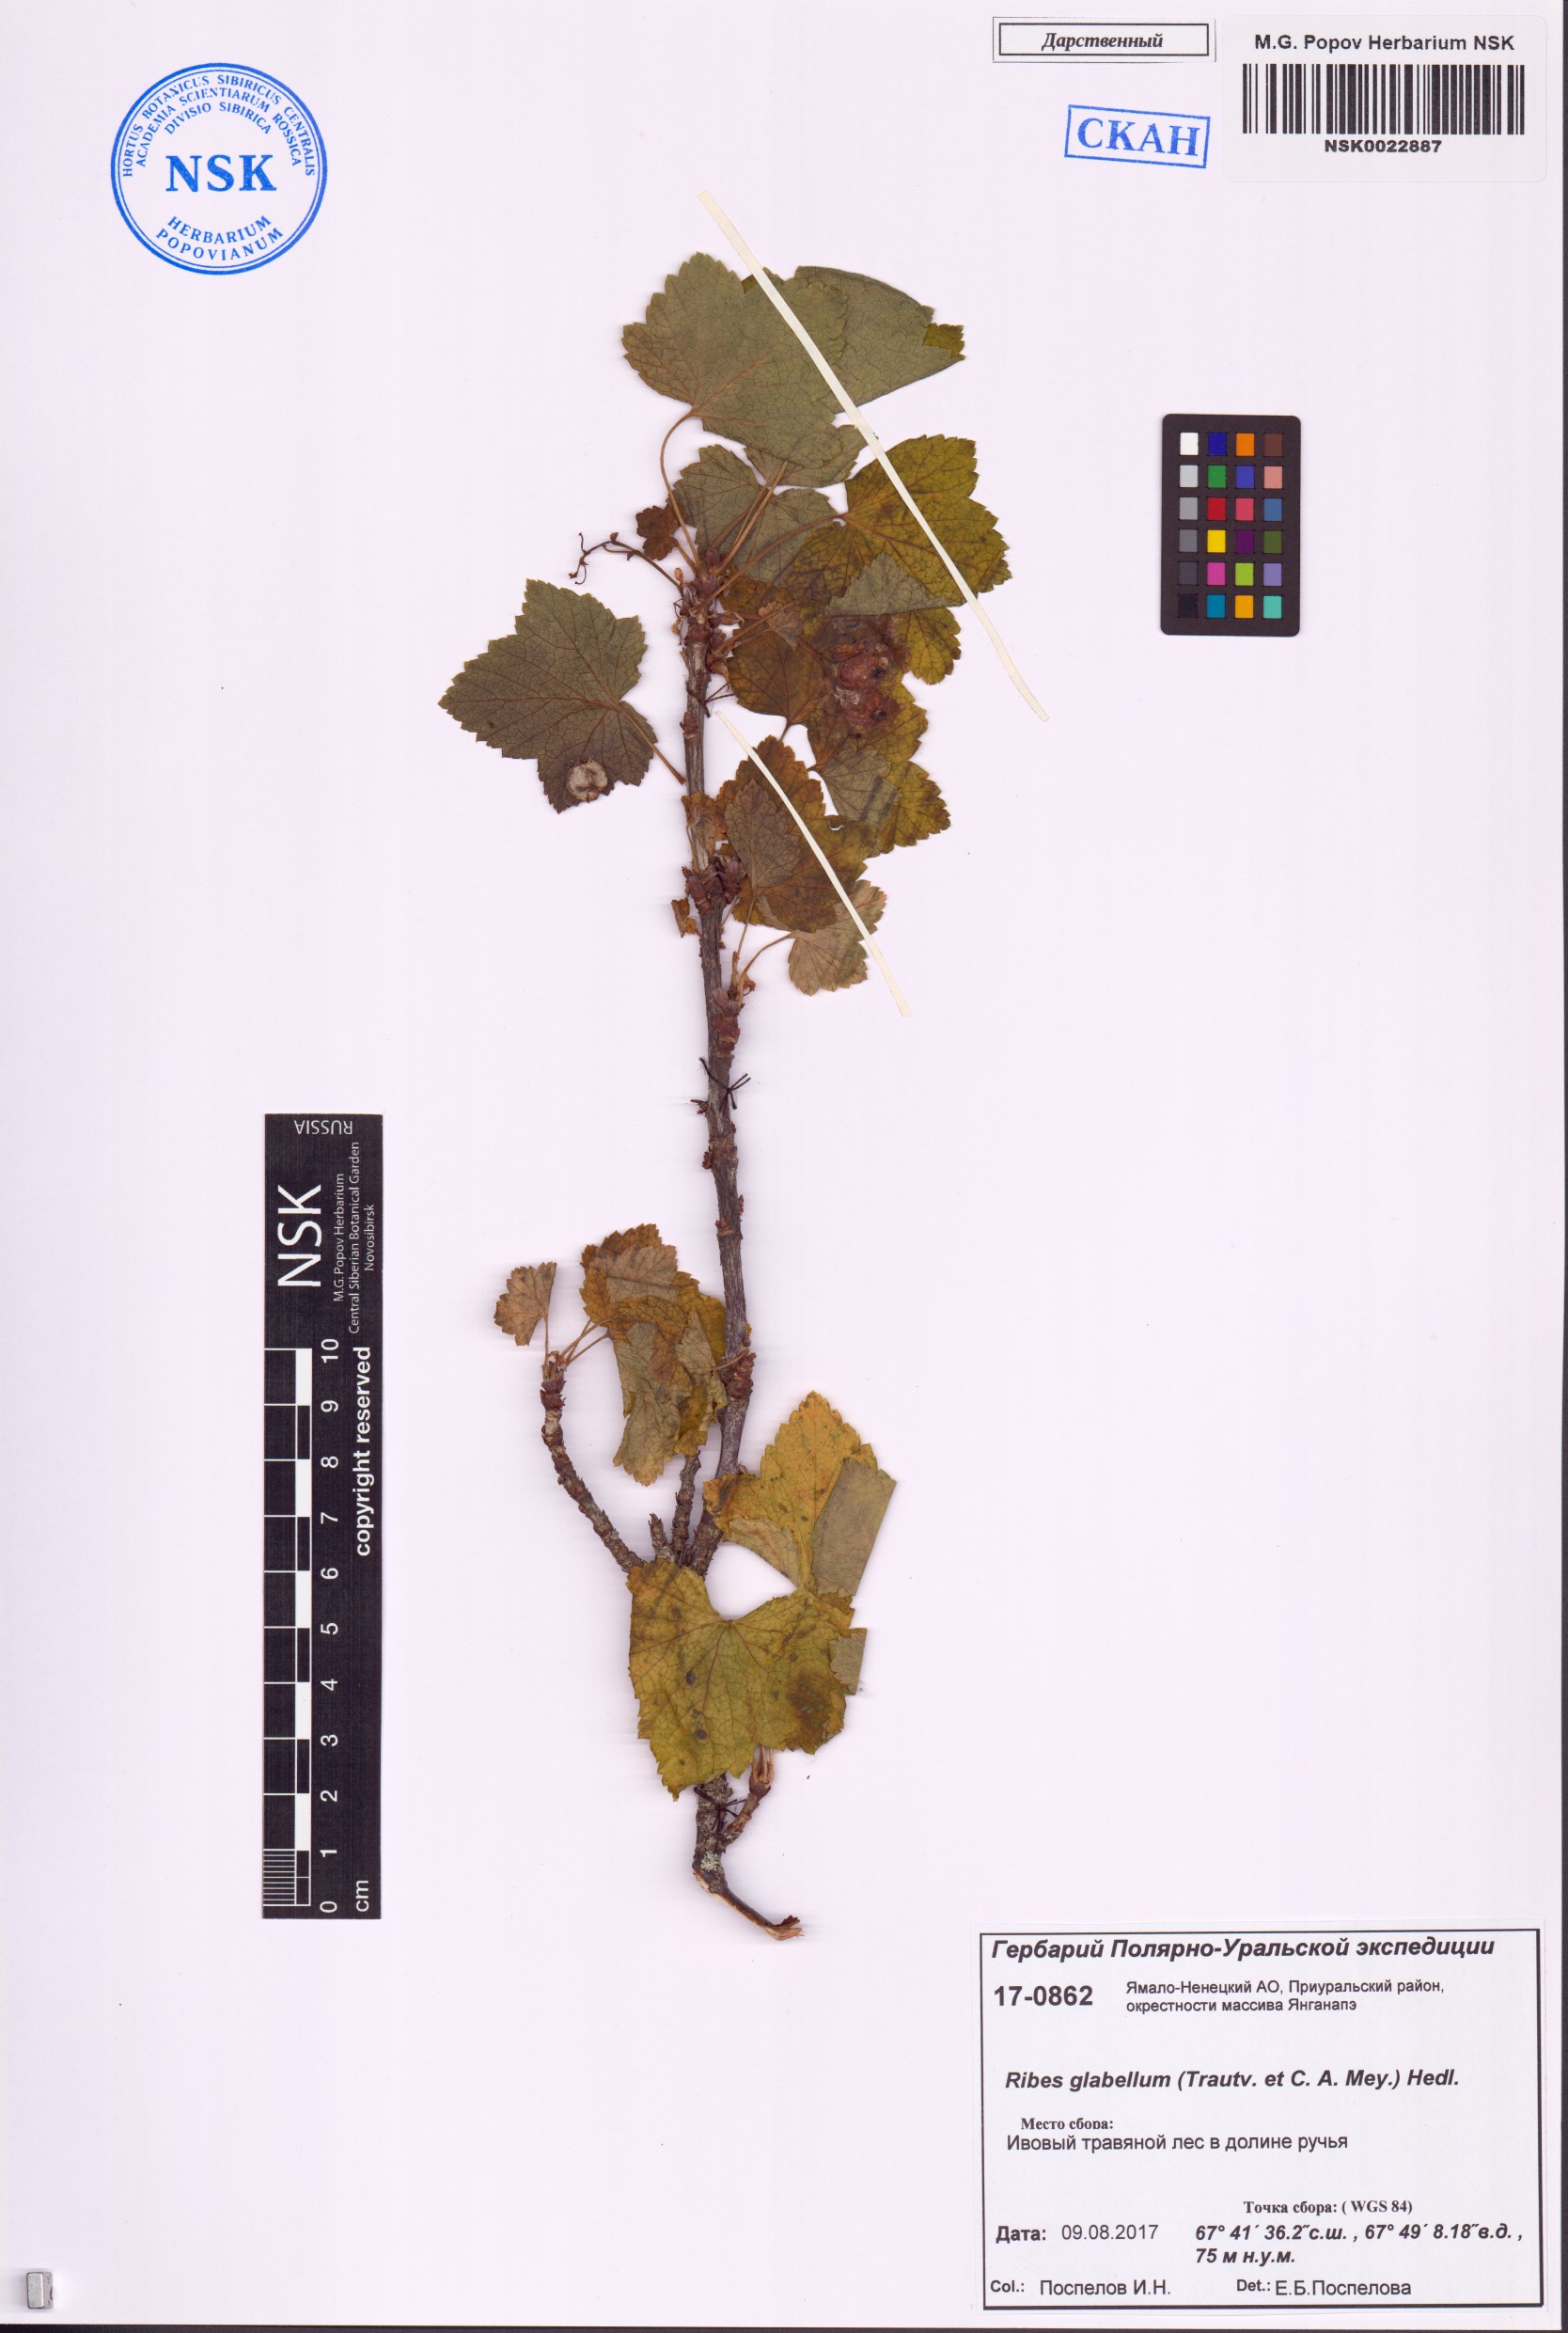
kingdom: Plantae
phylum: Tracheophyta
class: Magnoliopsida
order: Saxifragales
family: Grossulariaceae
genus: Ribes
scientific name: Ribes spicatum
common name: Downy currant
